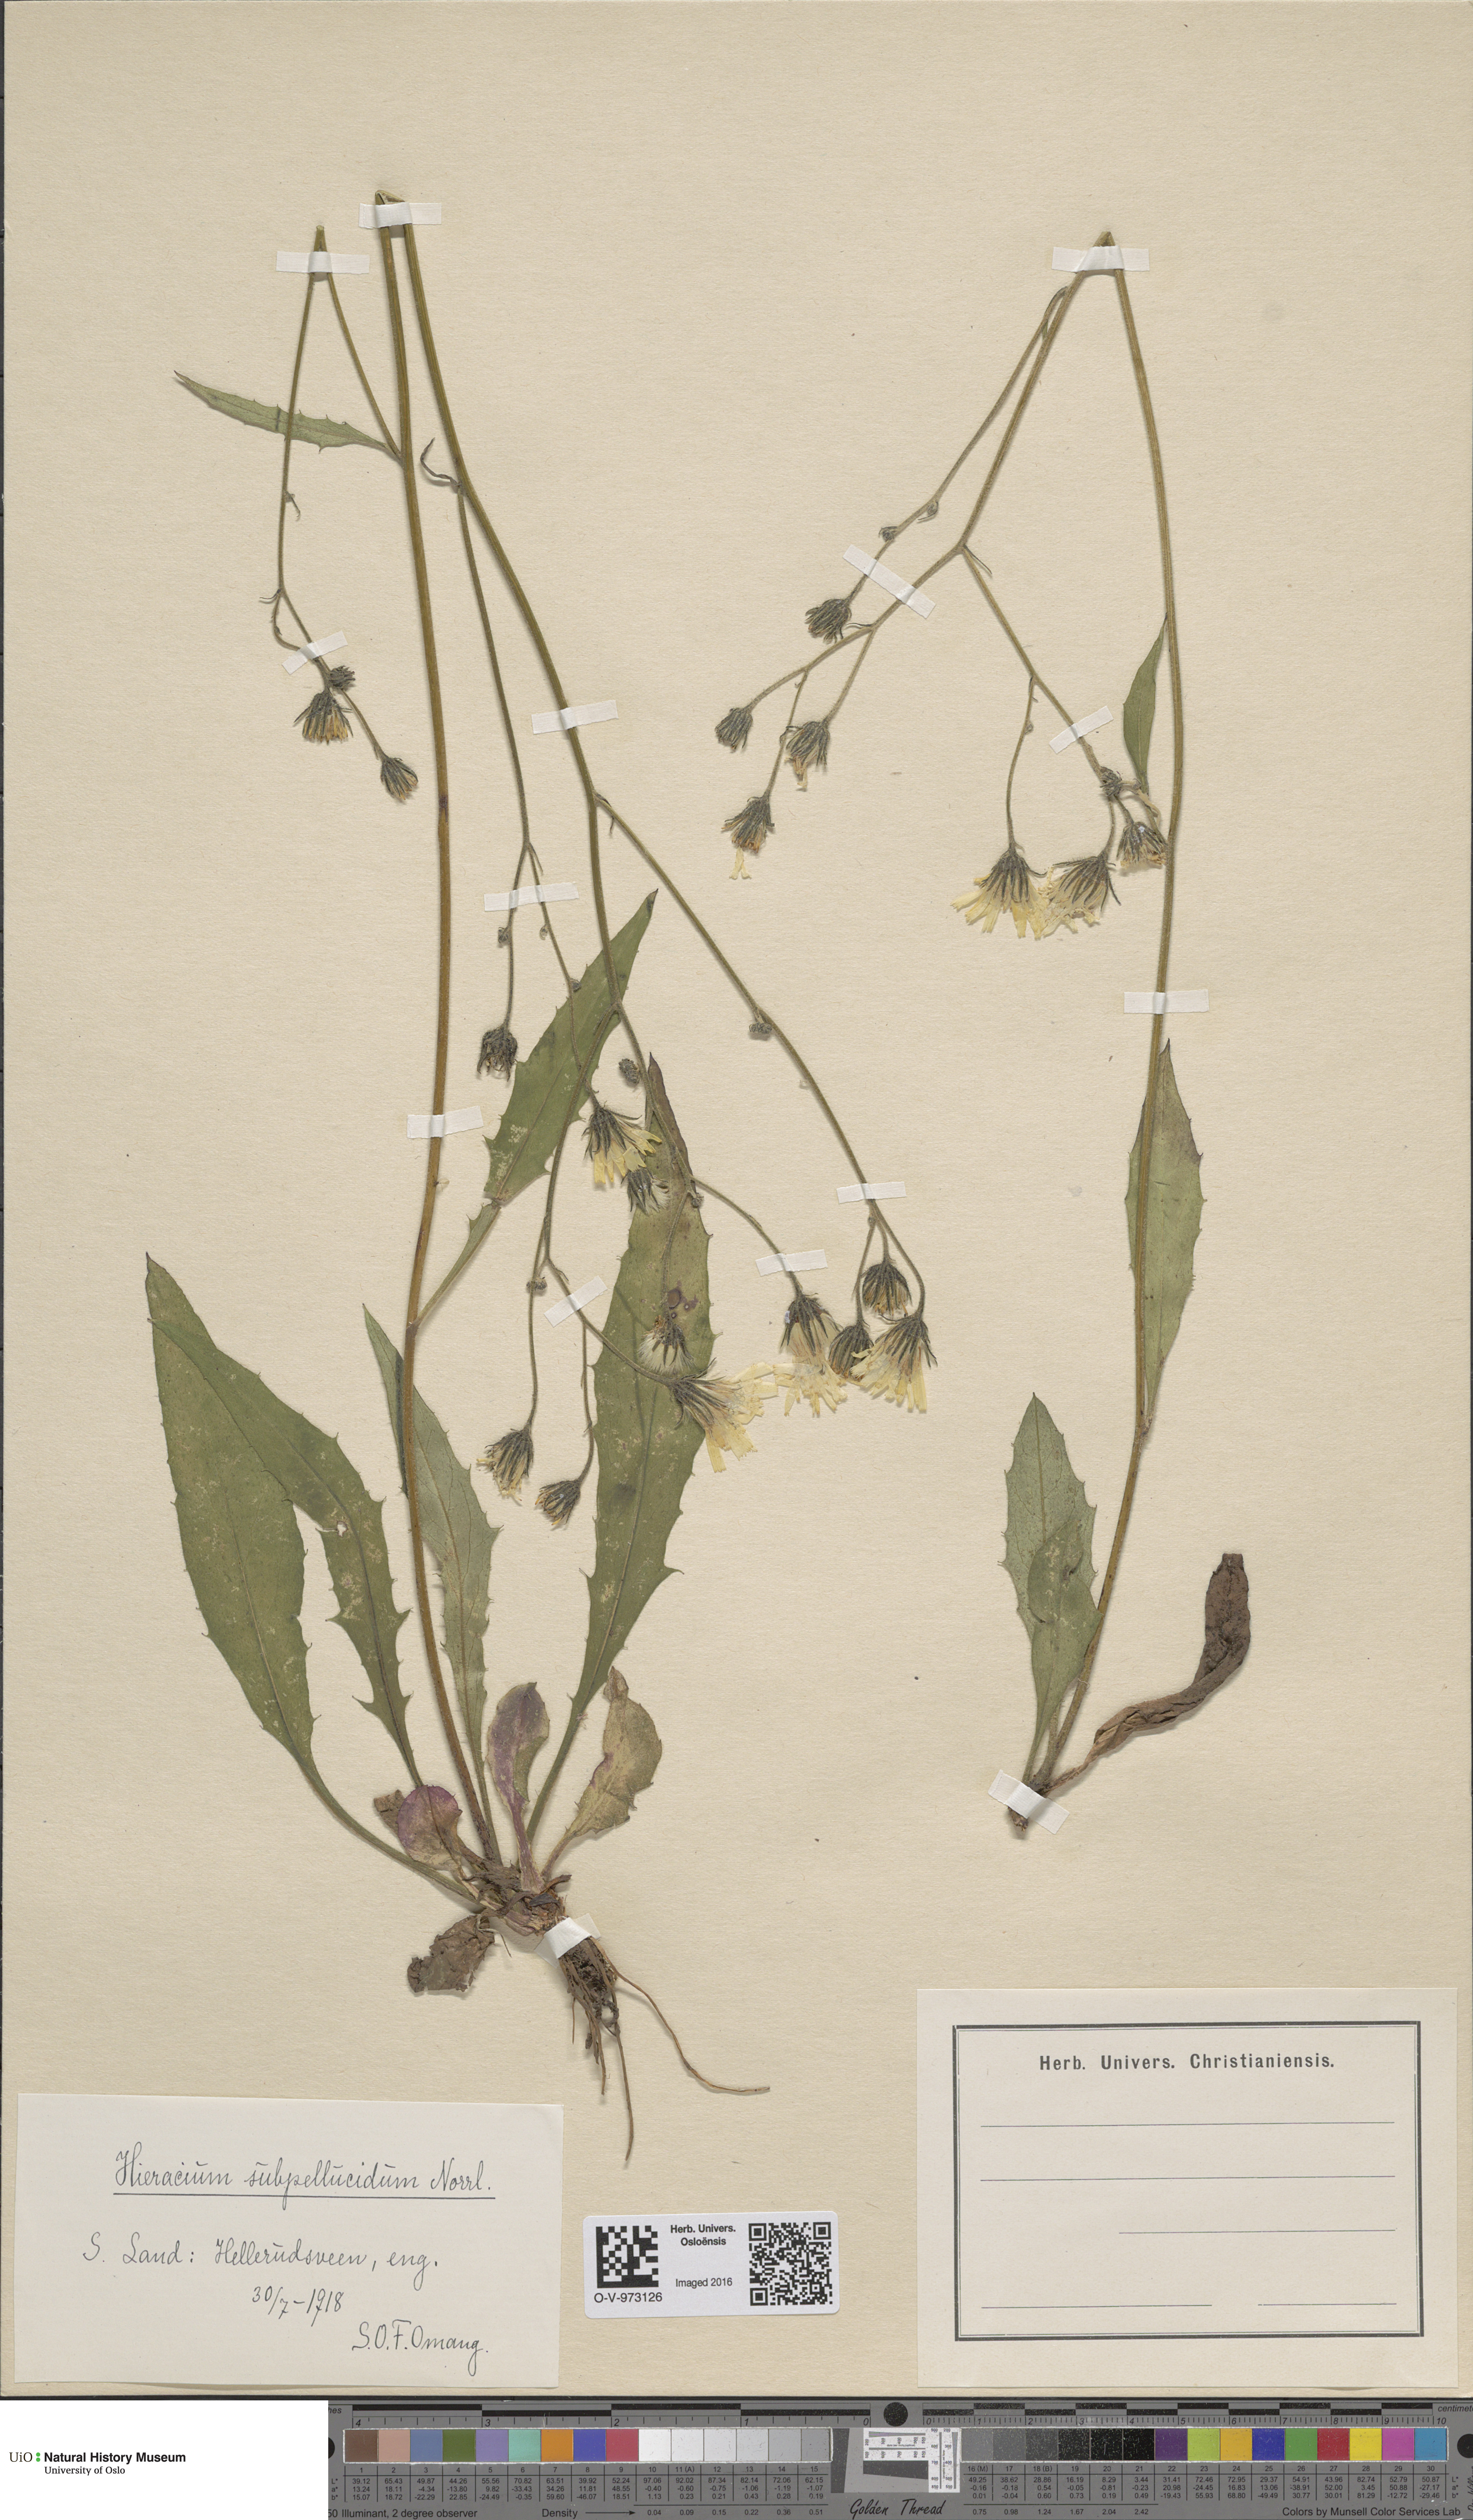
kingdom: Plantae
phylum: Tracheophyta
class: Magnoliopsida
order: Asterales
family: Asteraceae
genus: Hieracium
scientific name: Hieracium subpellucidum
